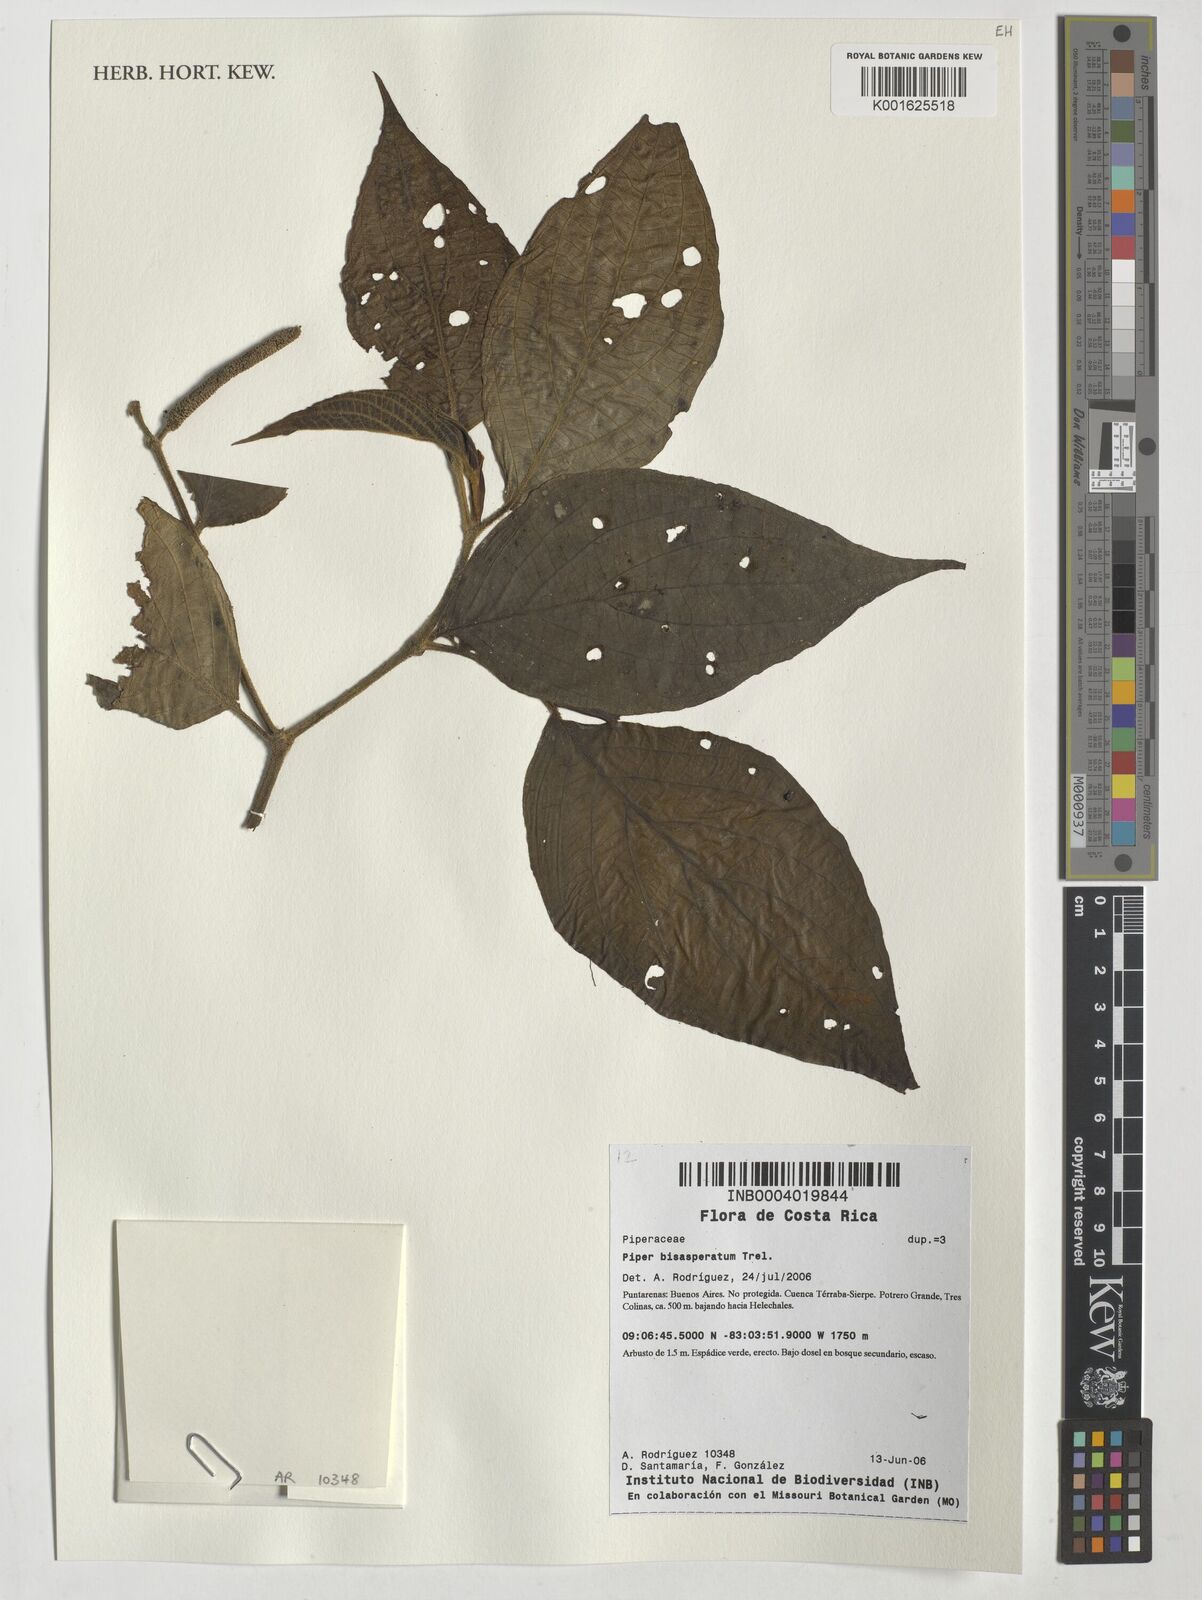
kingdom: Plantae
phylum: Tracheophyta
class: Magnoliopsida
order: Piperales
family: Piperaceae
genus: Piper
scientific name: Piper bisasperatum
